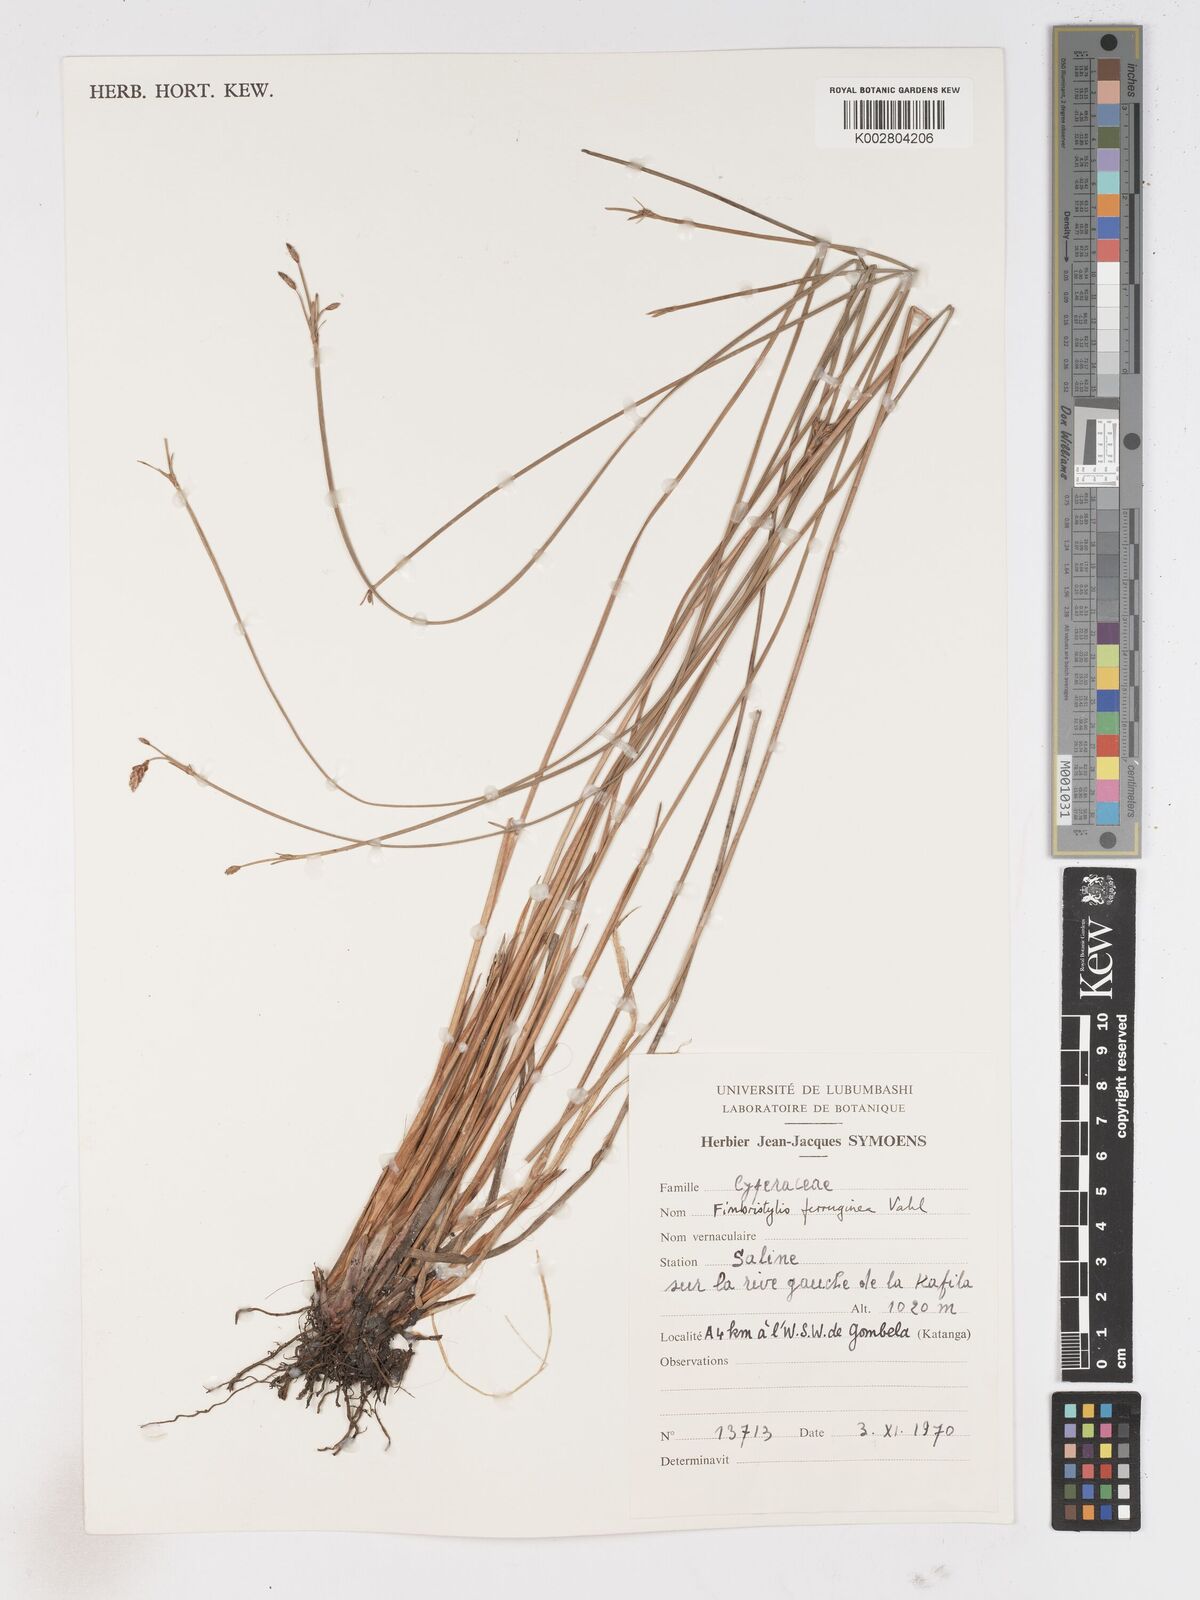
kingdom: Plantae
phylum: Tracheophyta
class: Liliopsida
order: Poales
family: Cyperaceae
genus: Fimbristylis
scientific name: Fimbristylis ferruginea
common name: West indian fimbry
